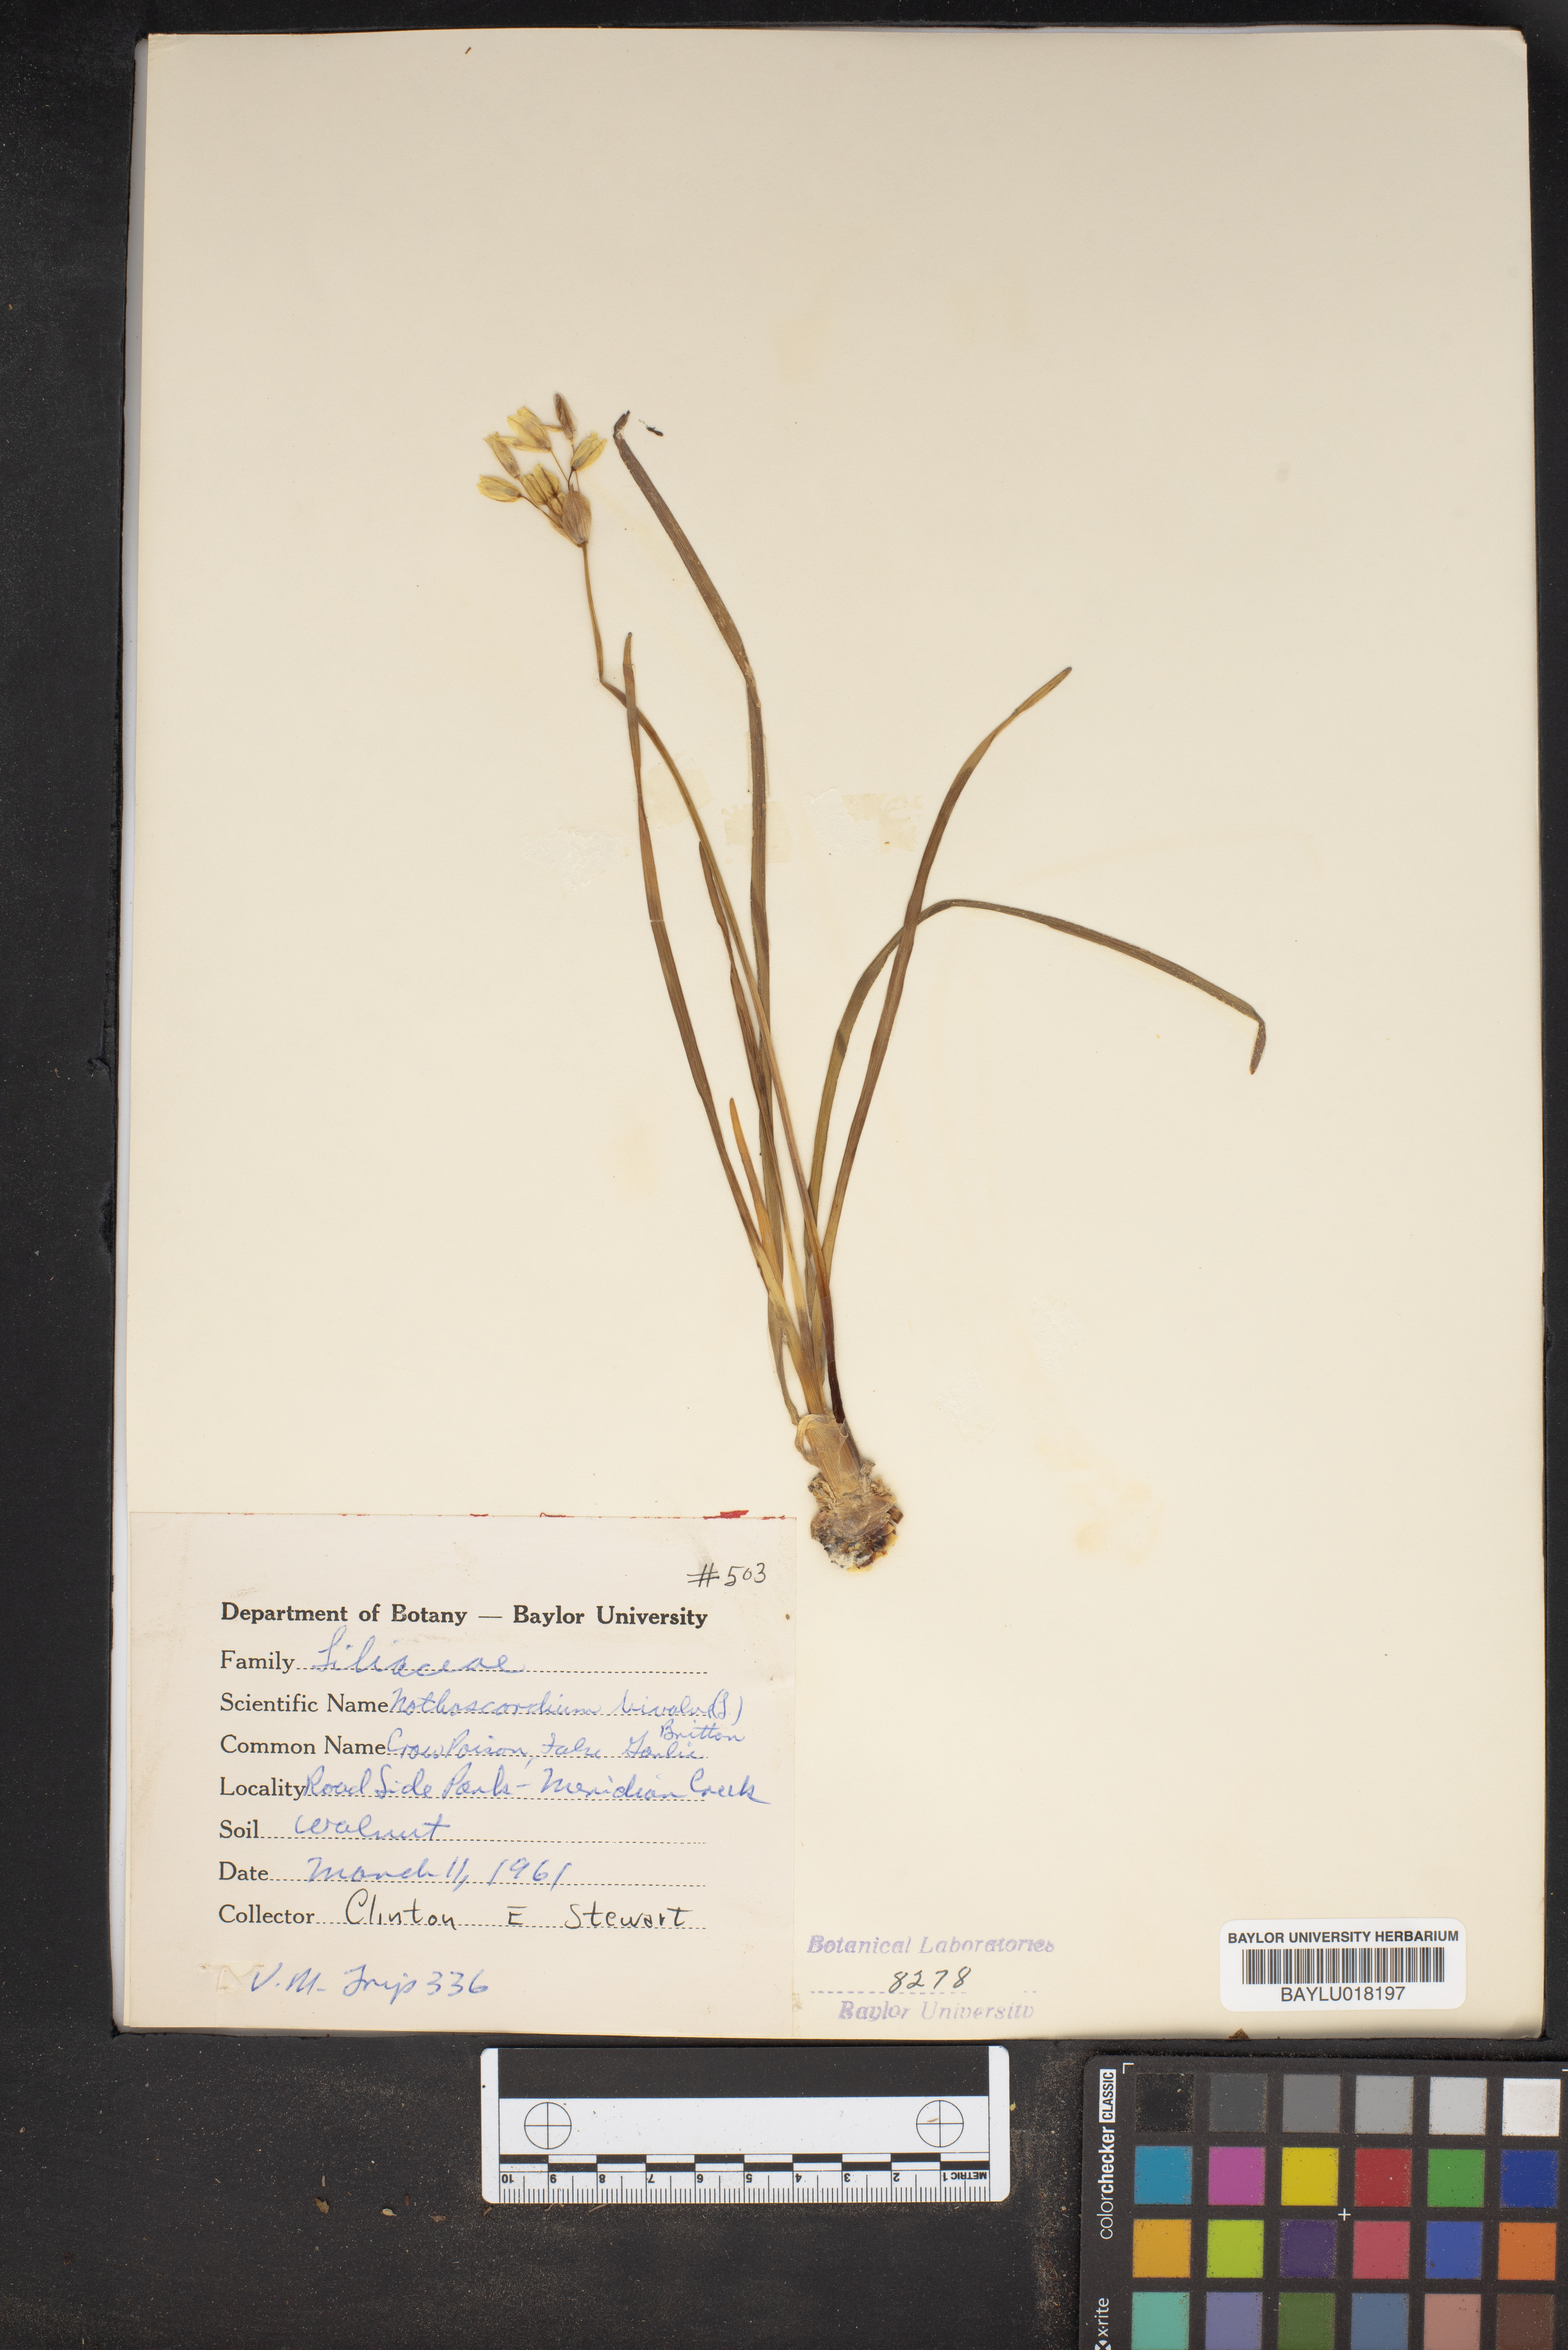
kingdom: Plantae
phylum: Tracheophyta
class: Liliopsida
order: Asparagales
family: Amaryllidaceae
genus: Nothoscordum
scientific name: Nothoscordum bivalve
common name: Crow-poison
